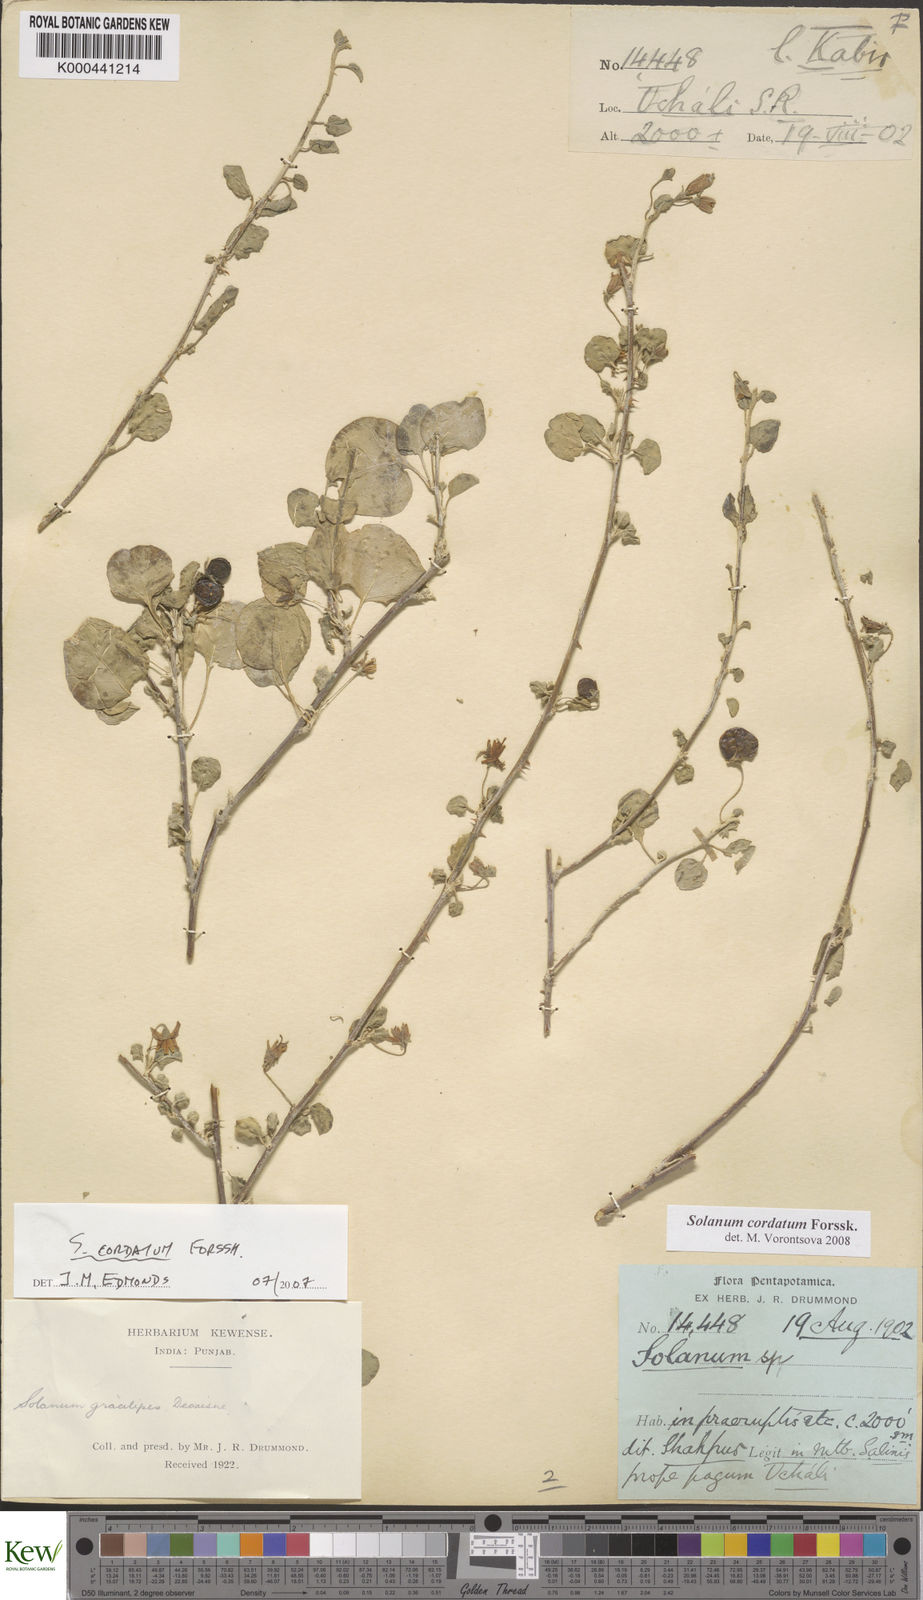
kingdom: Plantae
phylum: Tracheophyta
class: Magnoliopsida
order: Solanales
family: Solanaceae
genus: Solanum
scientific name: Solanum cordatum
